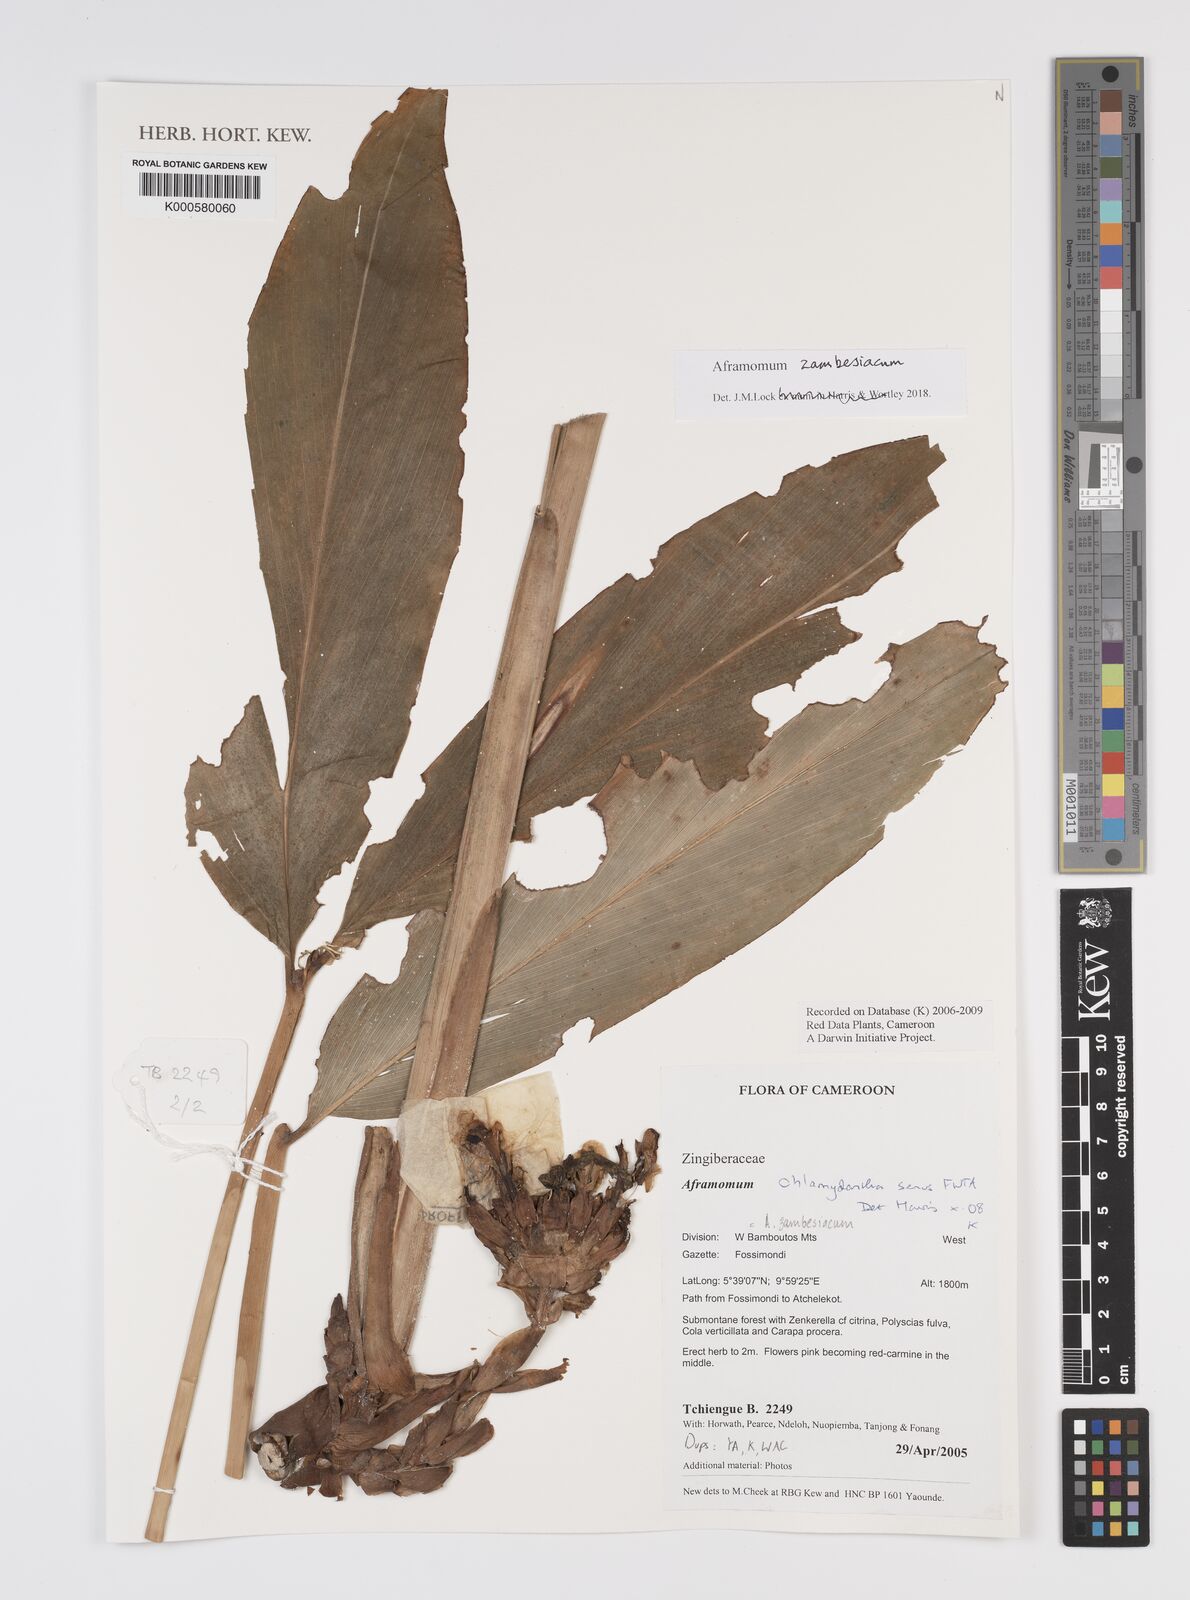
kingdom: Plantae
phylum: Tracheophyta
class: Liliopsida
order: Zingiberales
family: Zingiberaceae
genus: Aframomum
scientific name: Aframomum zambesiacum
